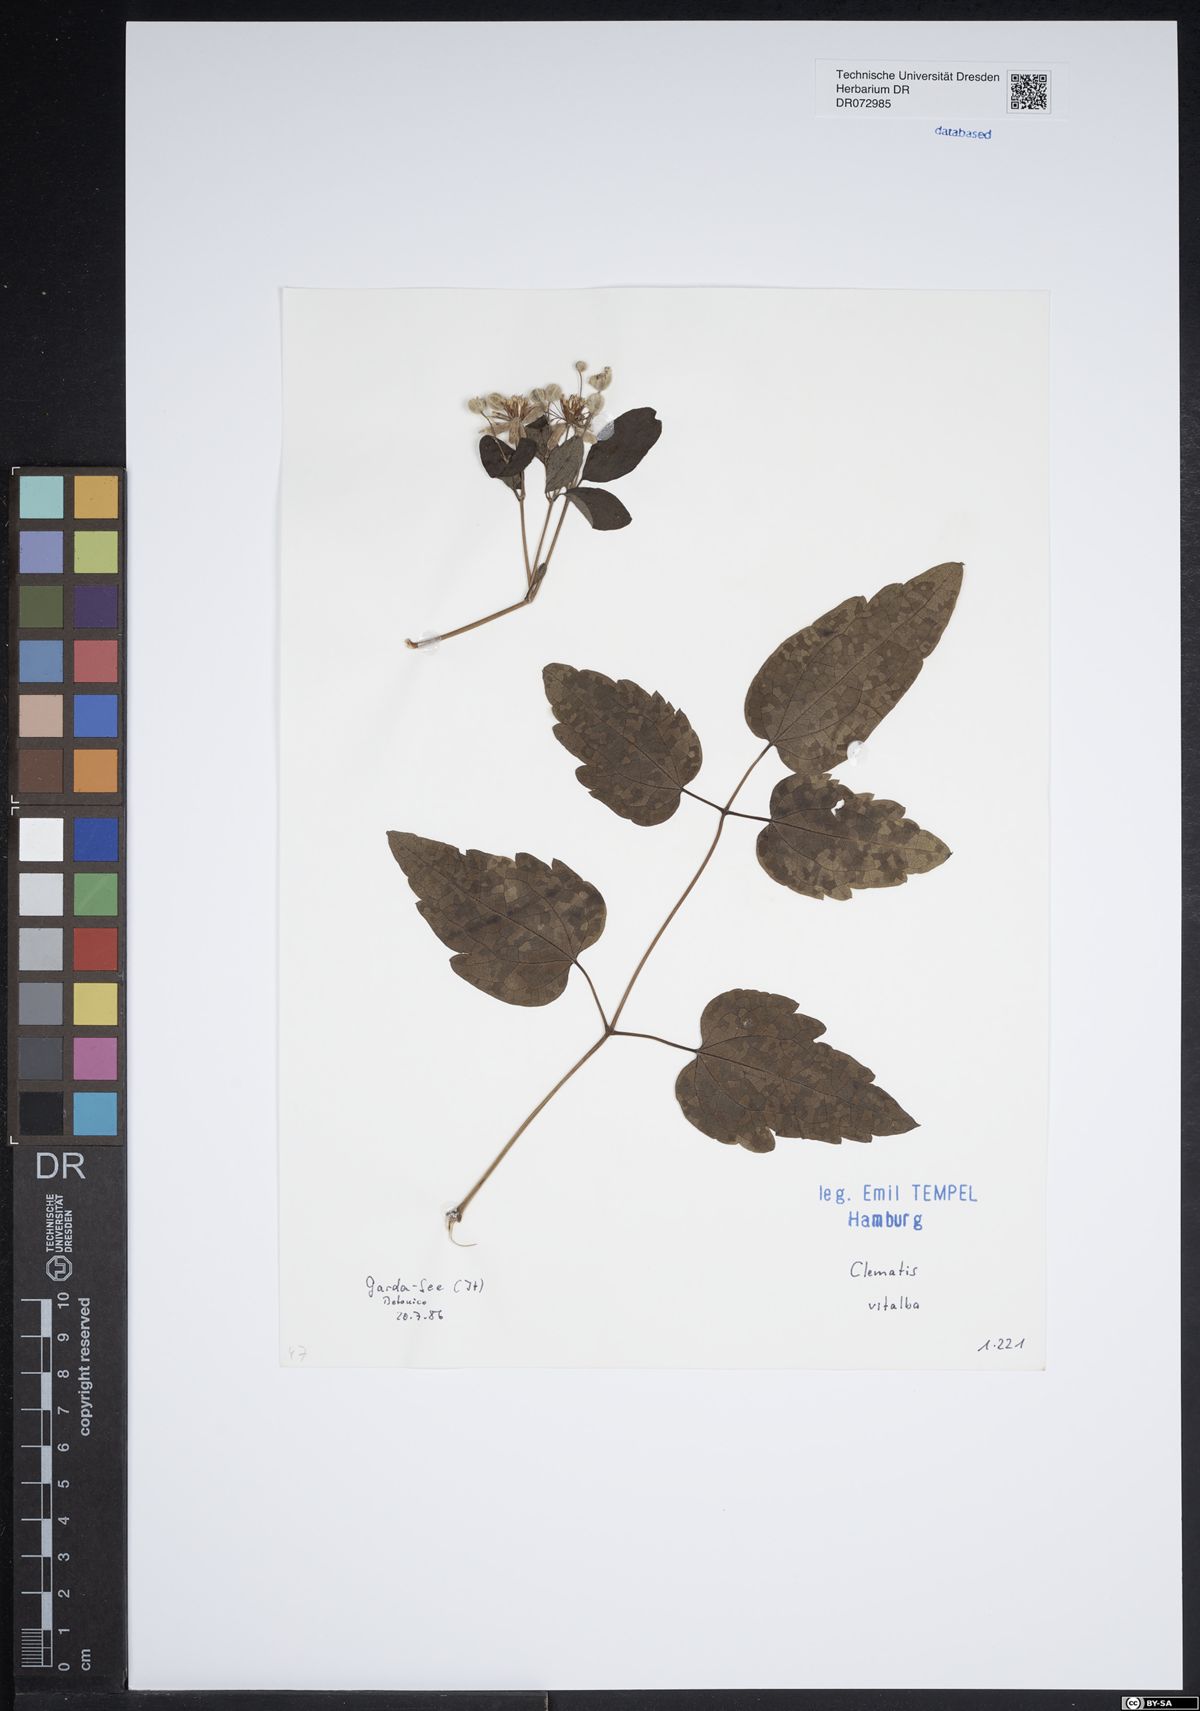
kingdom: Plantae
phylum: Tracheophyta
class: Magnoliopsida
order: Ranunculales
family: Ranunculaceae
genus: Clematis
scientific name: Clematis vitalba
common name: Evergreen clematis
